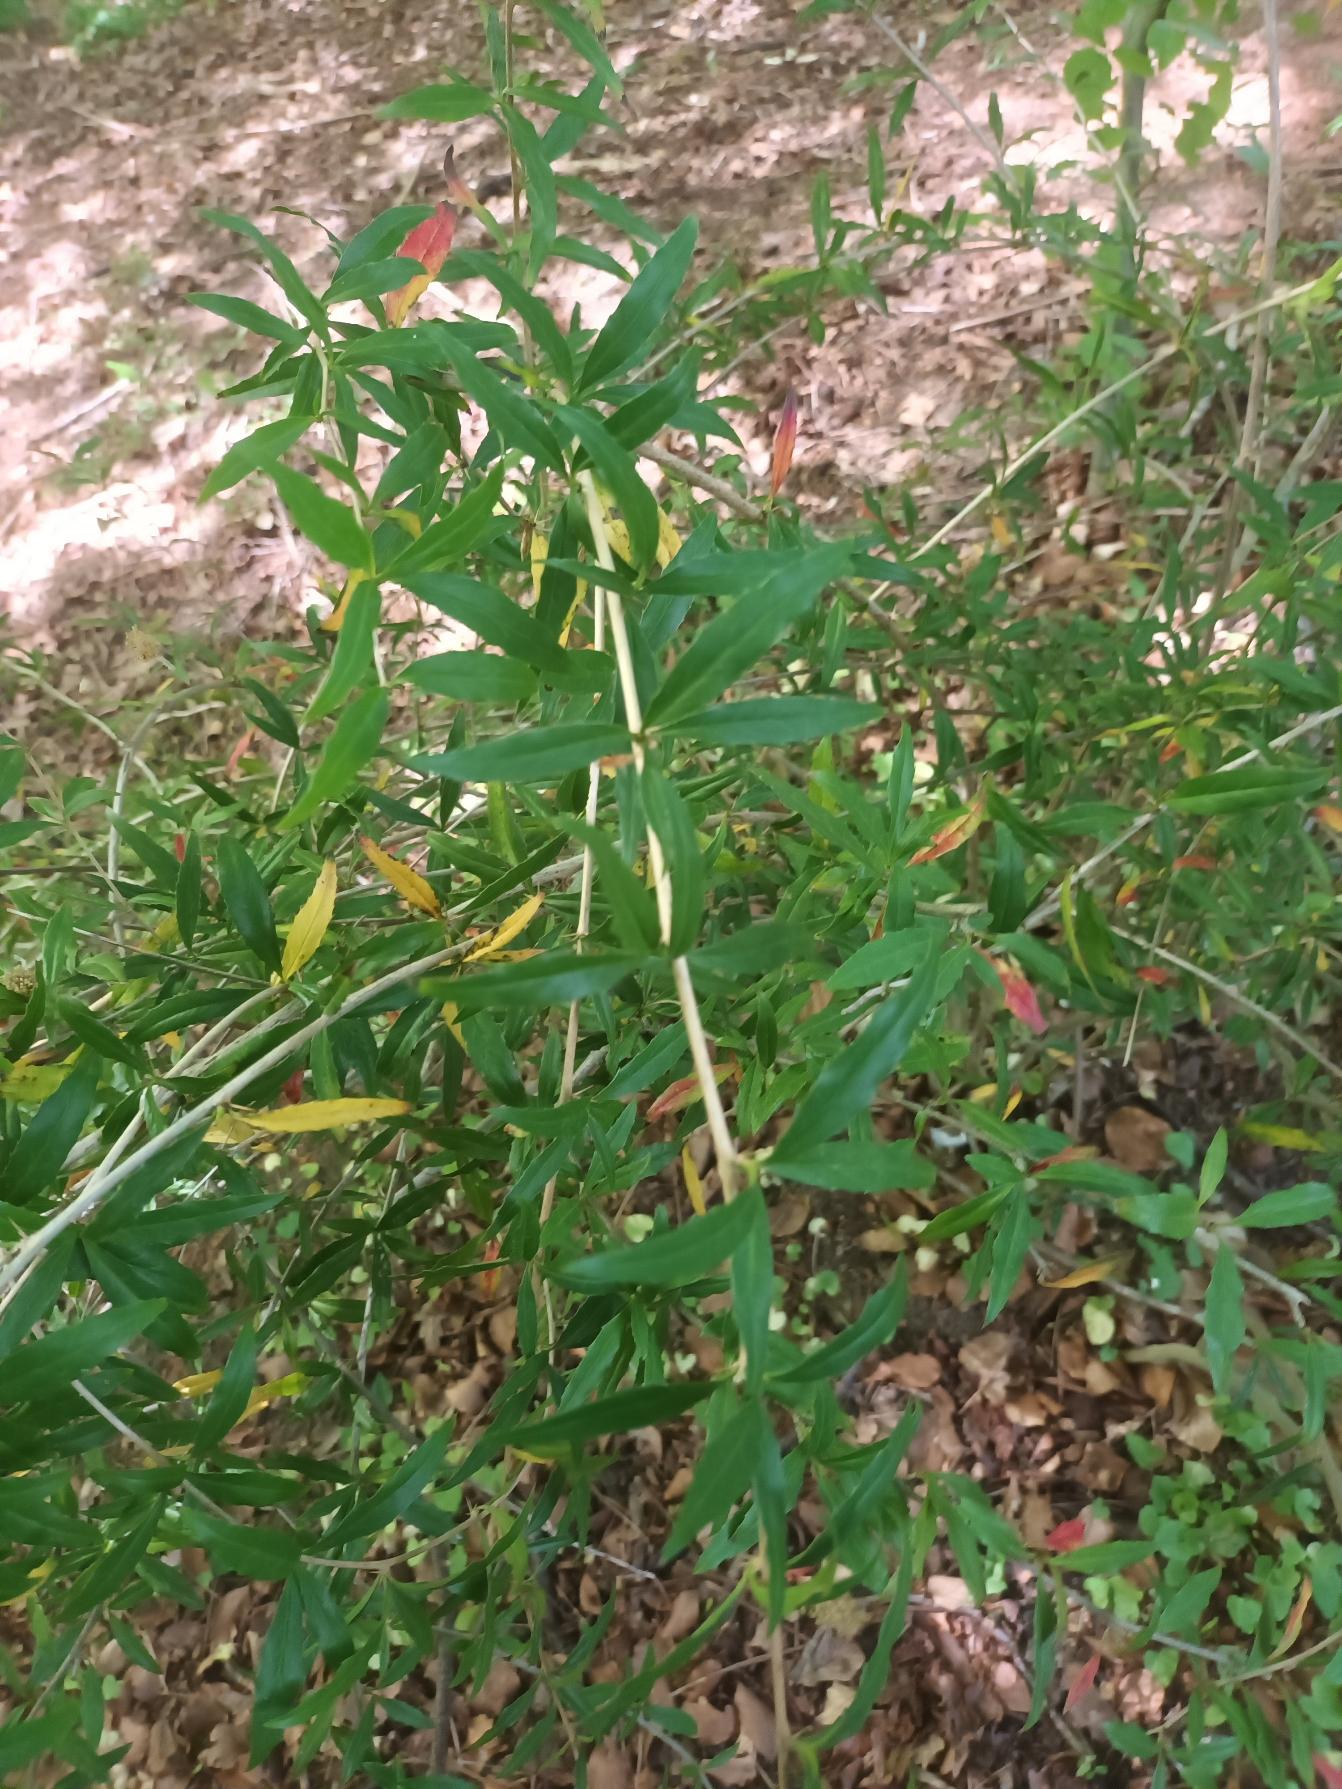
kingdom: Plantae
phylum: Tracheophyta
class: Magnoliopsida
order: Ranunculales
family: Berberidaceae
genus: Berberis
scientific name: Berberis gagnepainii
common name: Smalbladet surtorn
